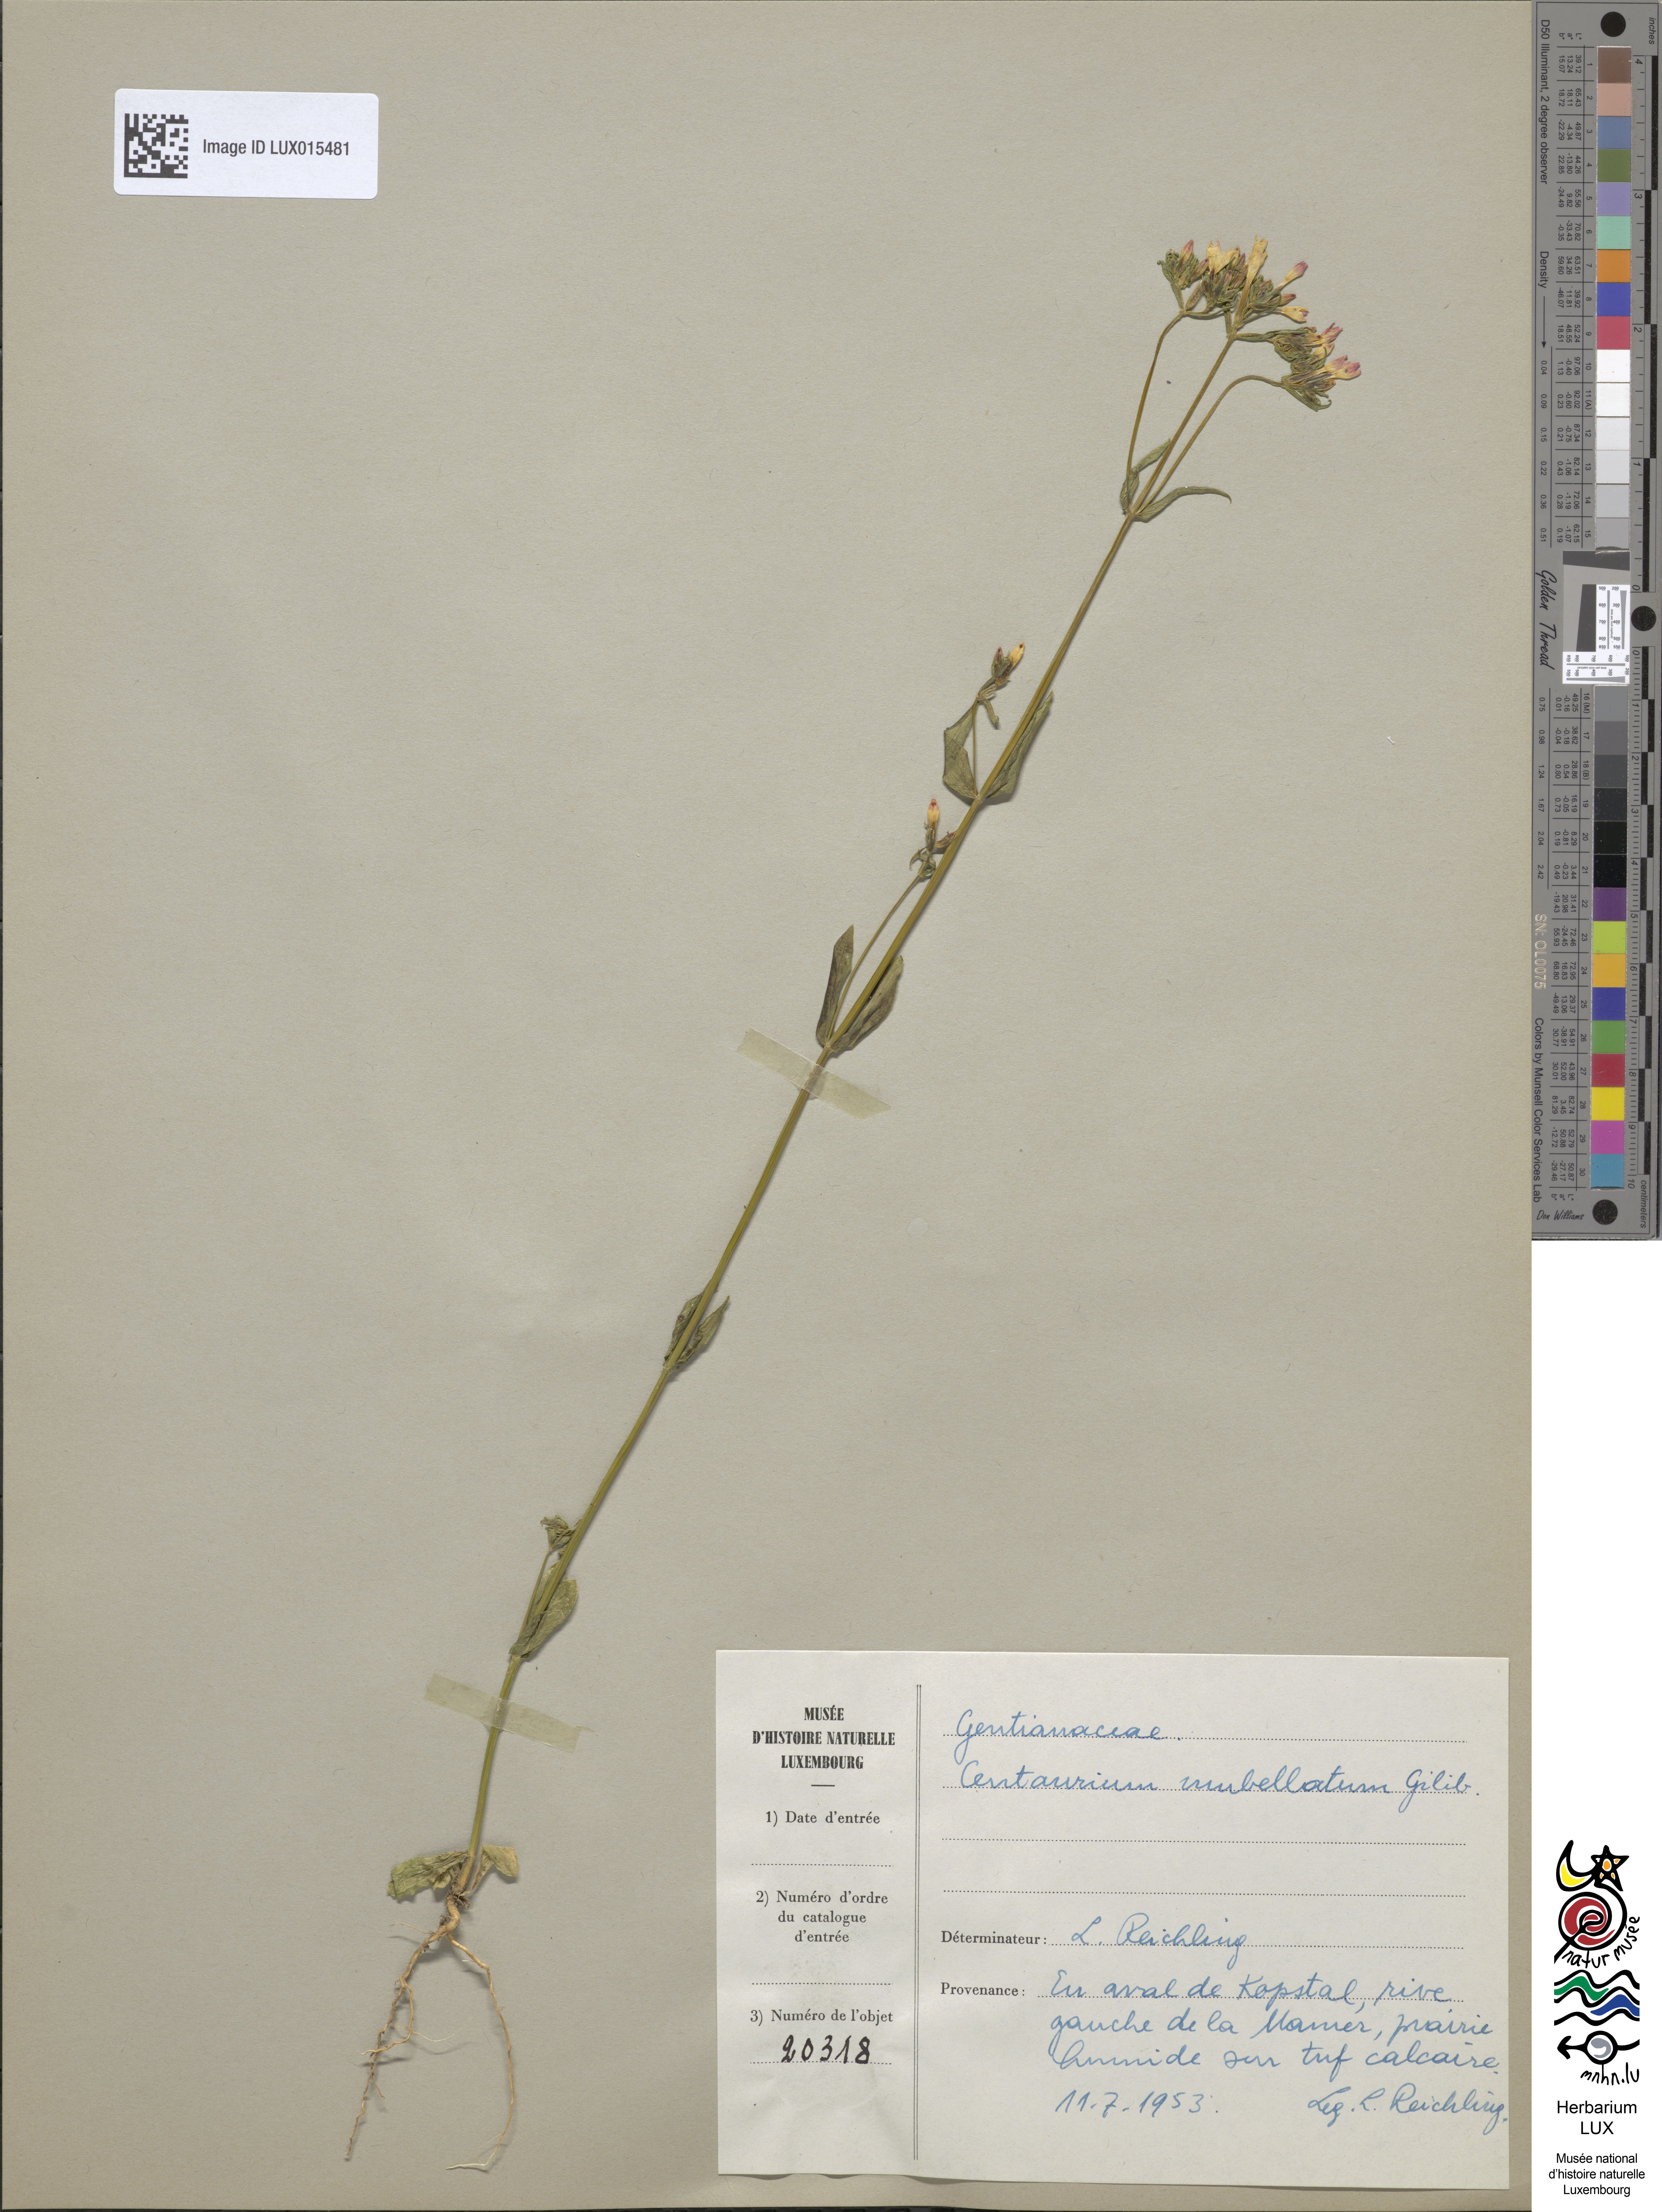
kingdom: Plantae
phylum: Tracheophyta
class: Magnoliopsida
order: Gentianales
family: Gentianaceae
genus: Centaurium
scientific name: Centaurium erythraea
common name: Common centaury
